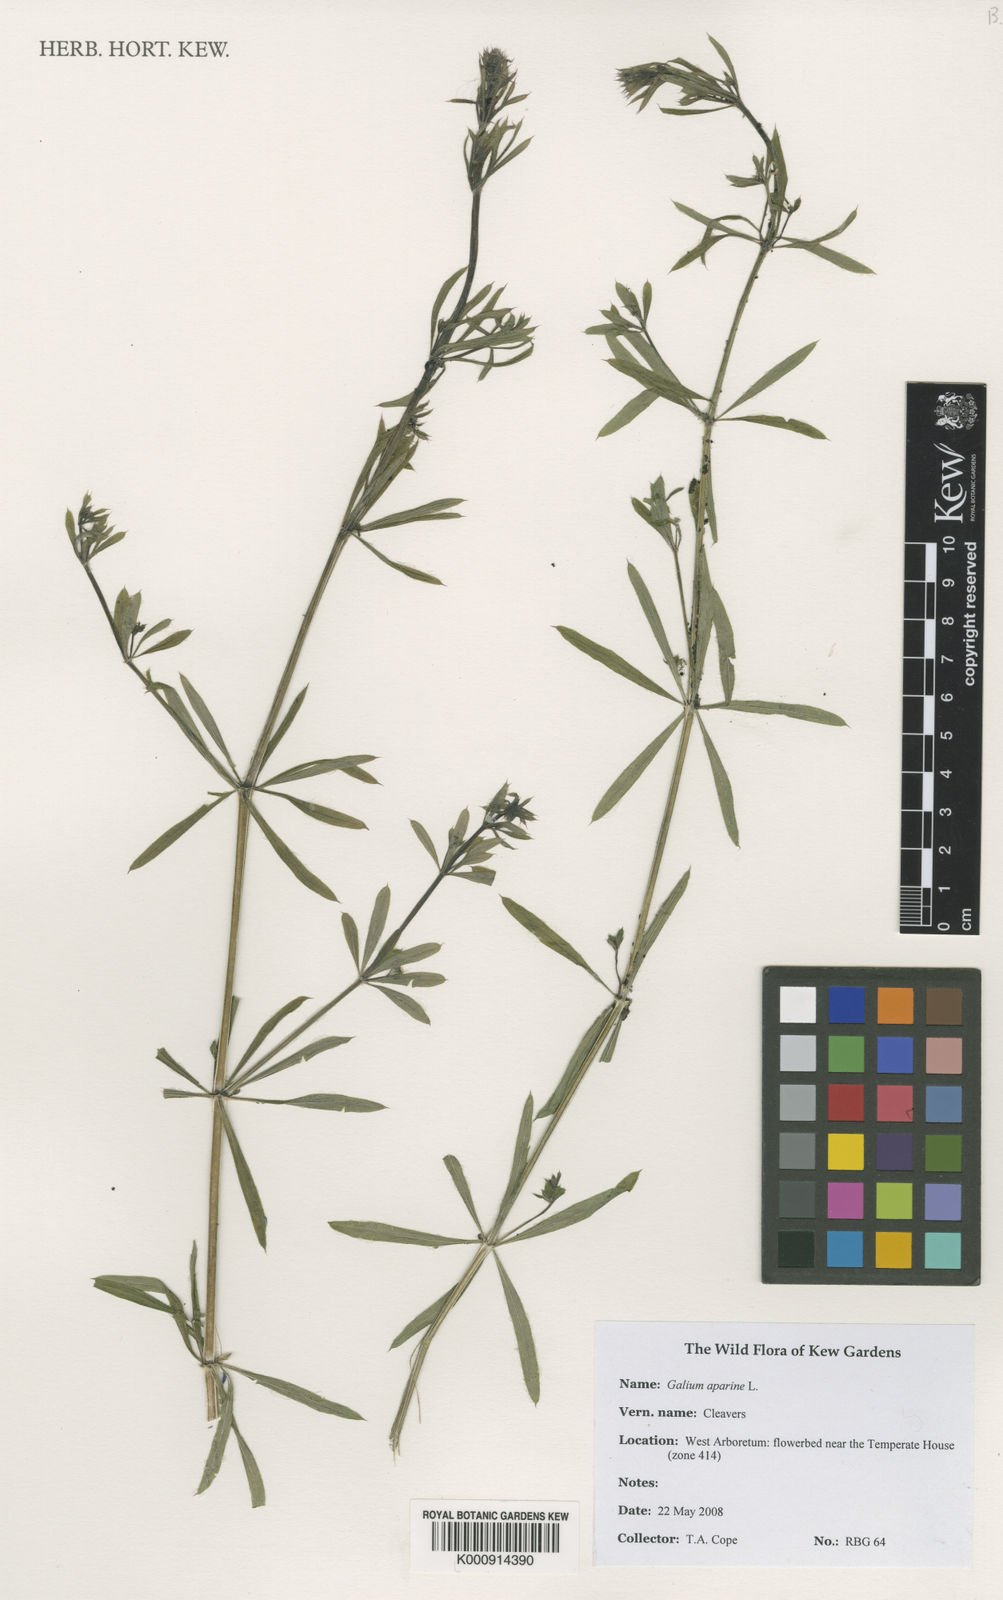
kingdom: Plantae
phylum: Tracheophyta
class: Magnoliopsida
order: Gentianales
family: Rubiaceae
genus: Galium
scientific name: Galium aparine
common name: Cleavers
